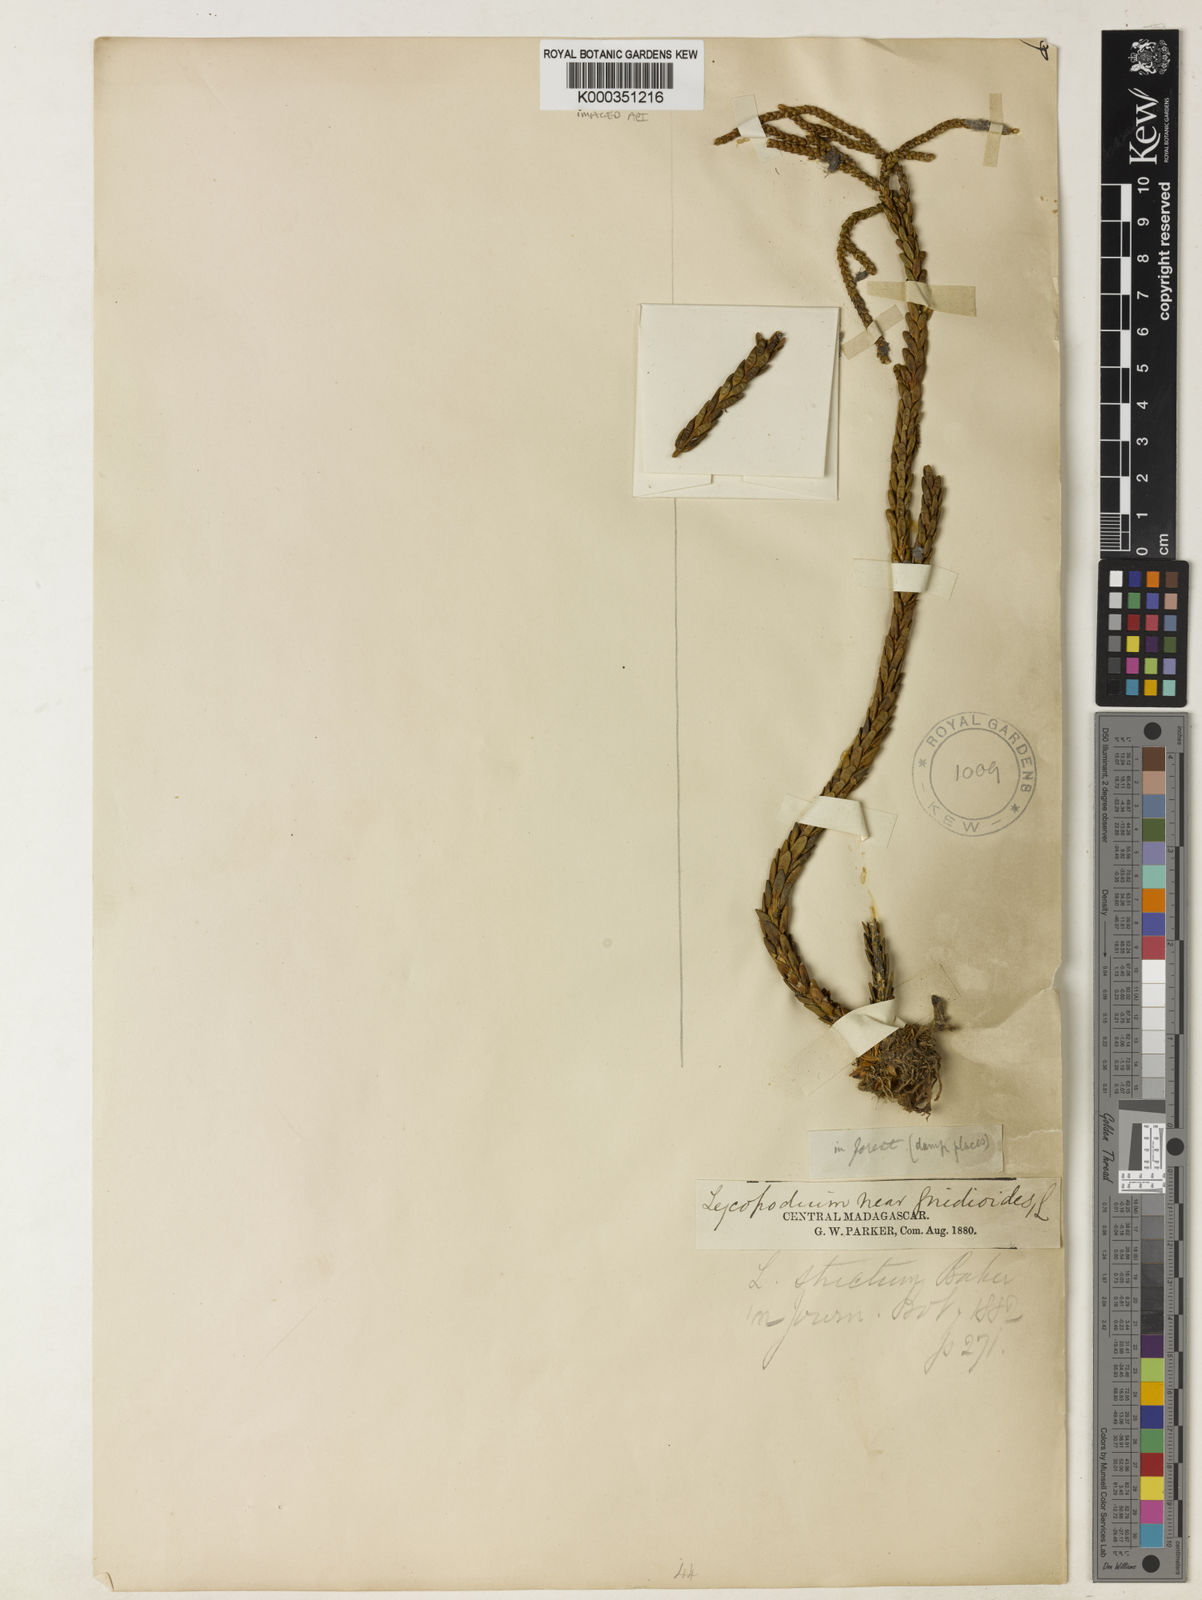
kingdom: Plantae
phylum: Tracheophyta
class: Lycopodiopsida
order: Lycopodiales
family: Lycopodiaceae
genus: Phlegmariurus
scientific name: Phlegmariurus strictus
